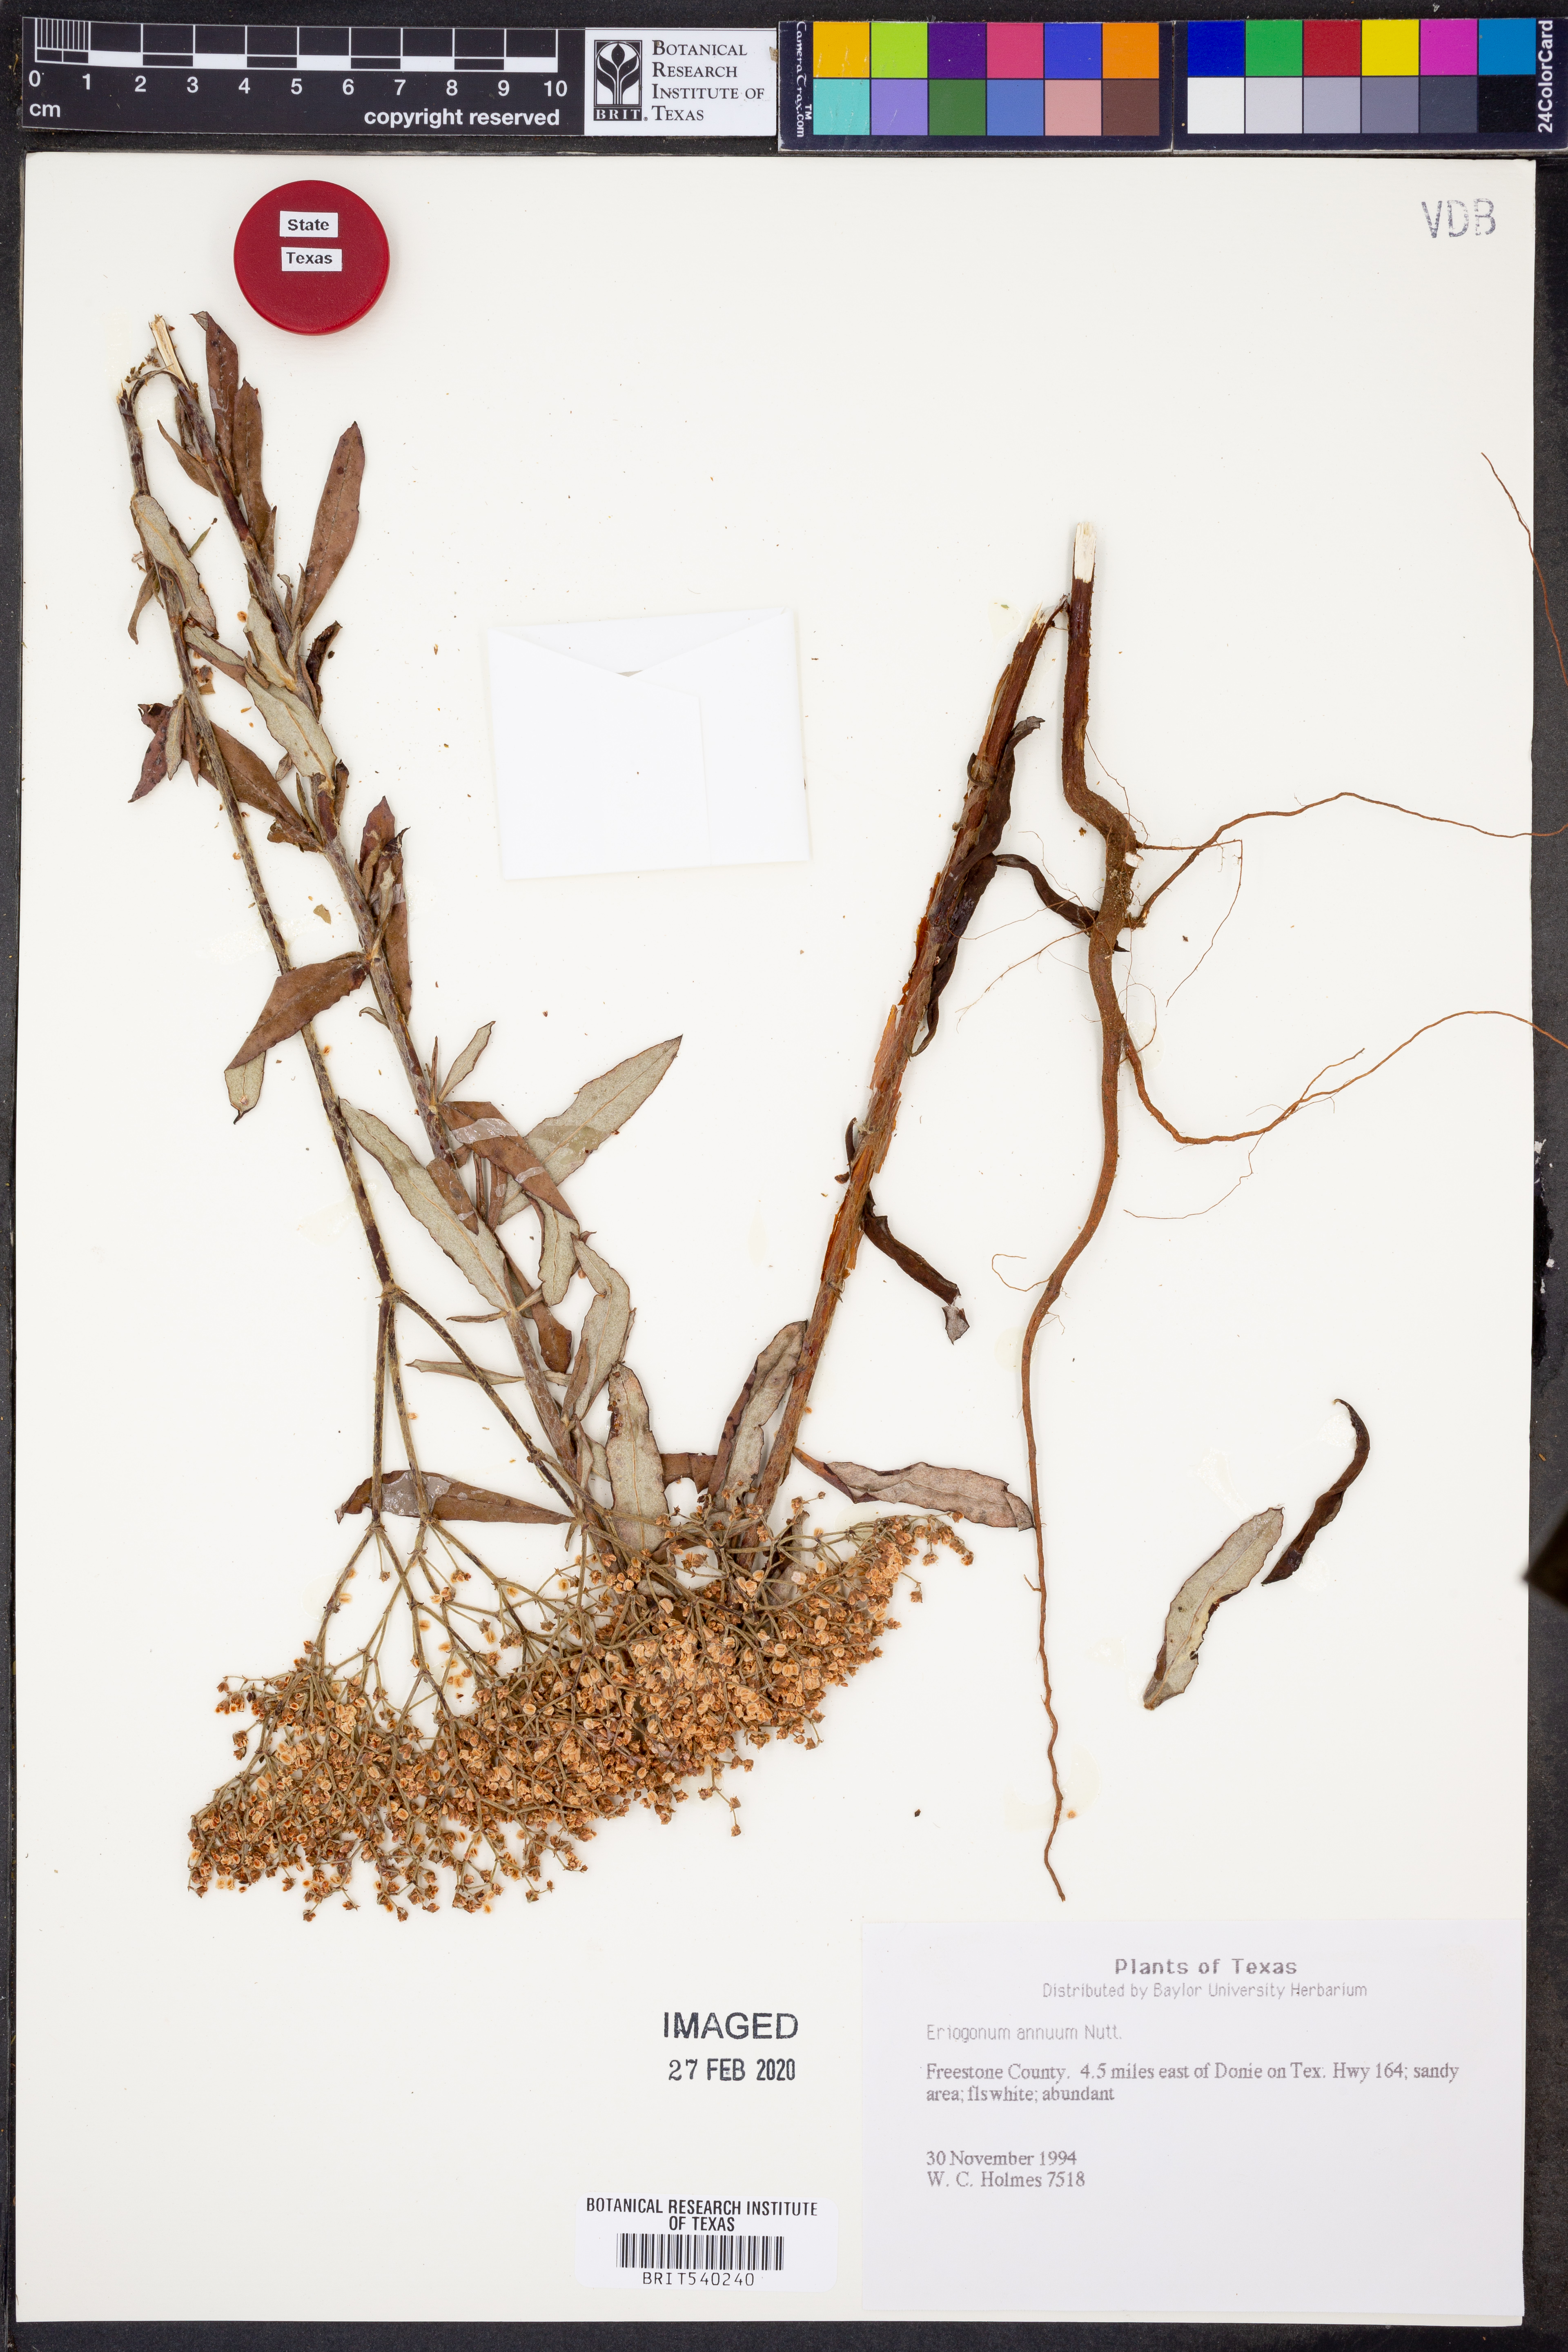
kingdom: Plantae
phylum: Tracheophyta
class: Magnoliopsida
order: Caryophyllales
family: Polygonaceae
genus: Eriogonum
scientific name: Eriogonum annuum
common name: Annual wild buckwheat
